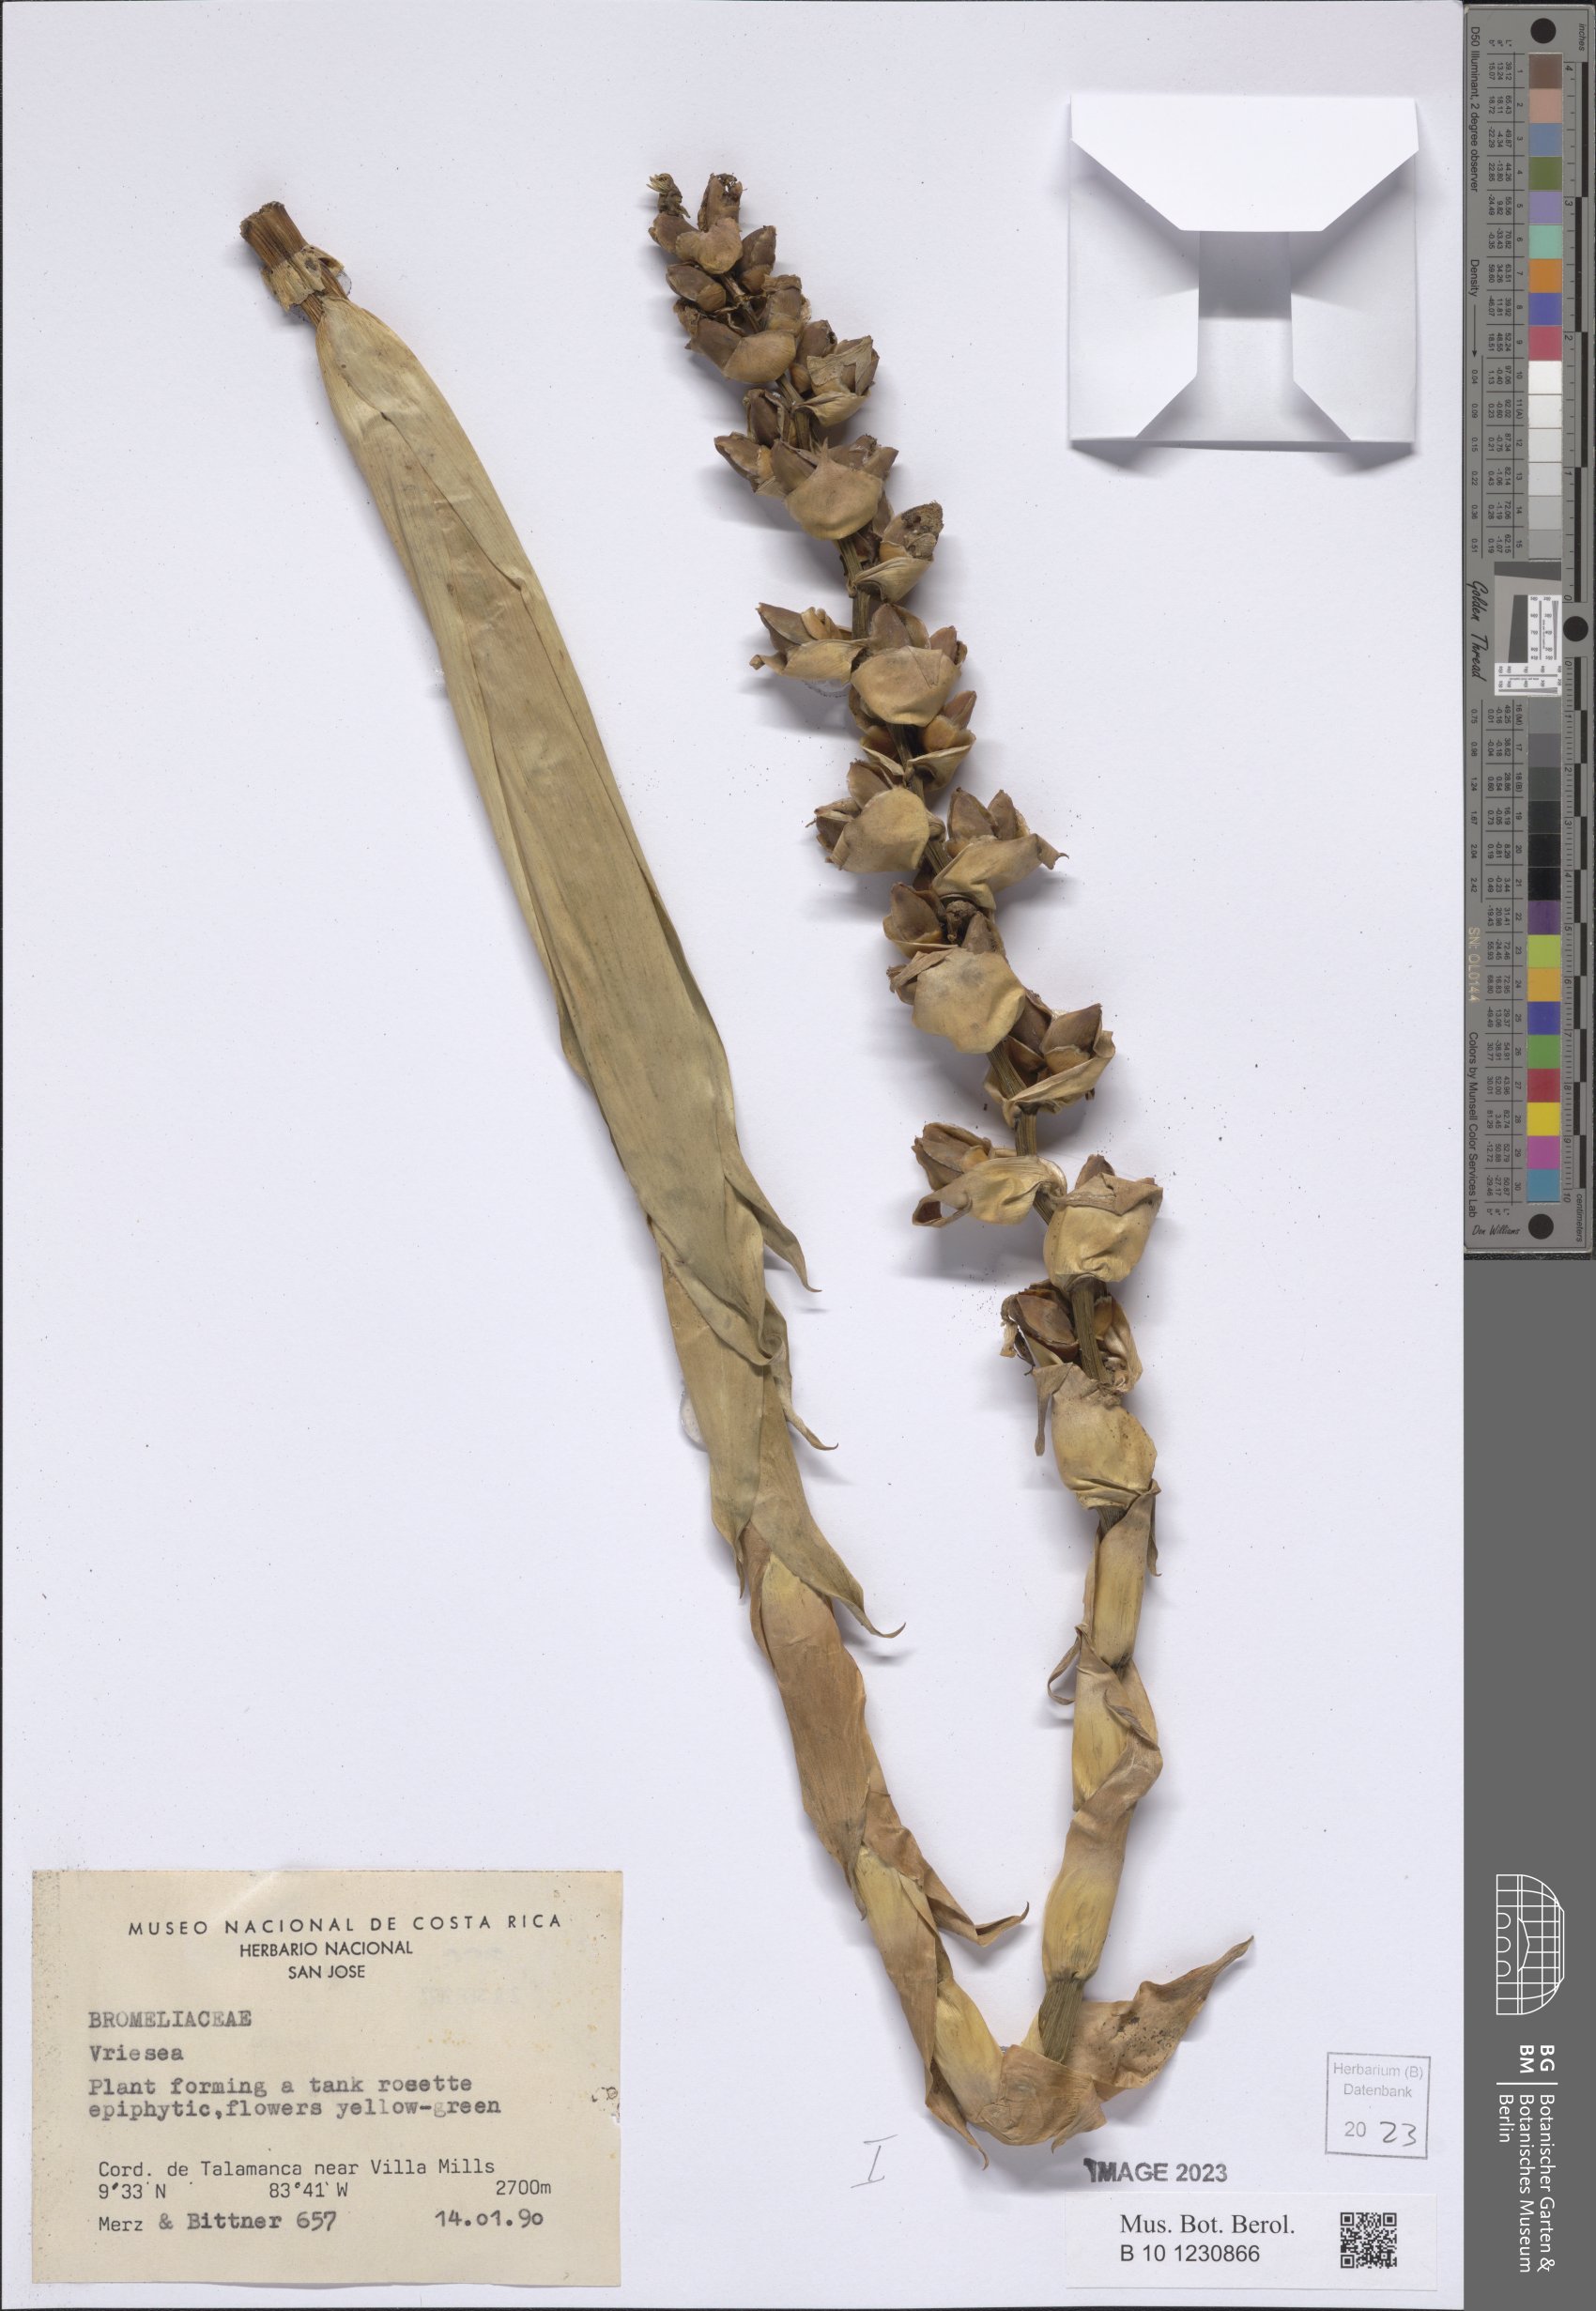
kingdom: Plantae
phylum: Tracheophyta
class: Liliopsida
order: Poales
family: Bromeliaceae
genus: Vriesea
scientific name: Vriesea
